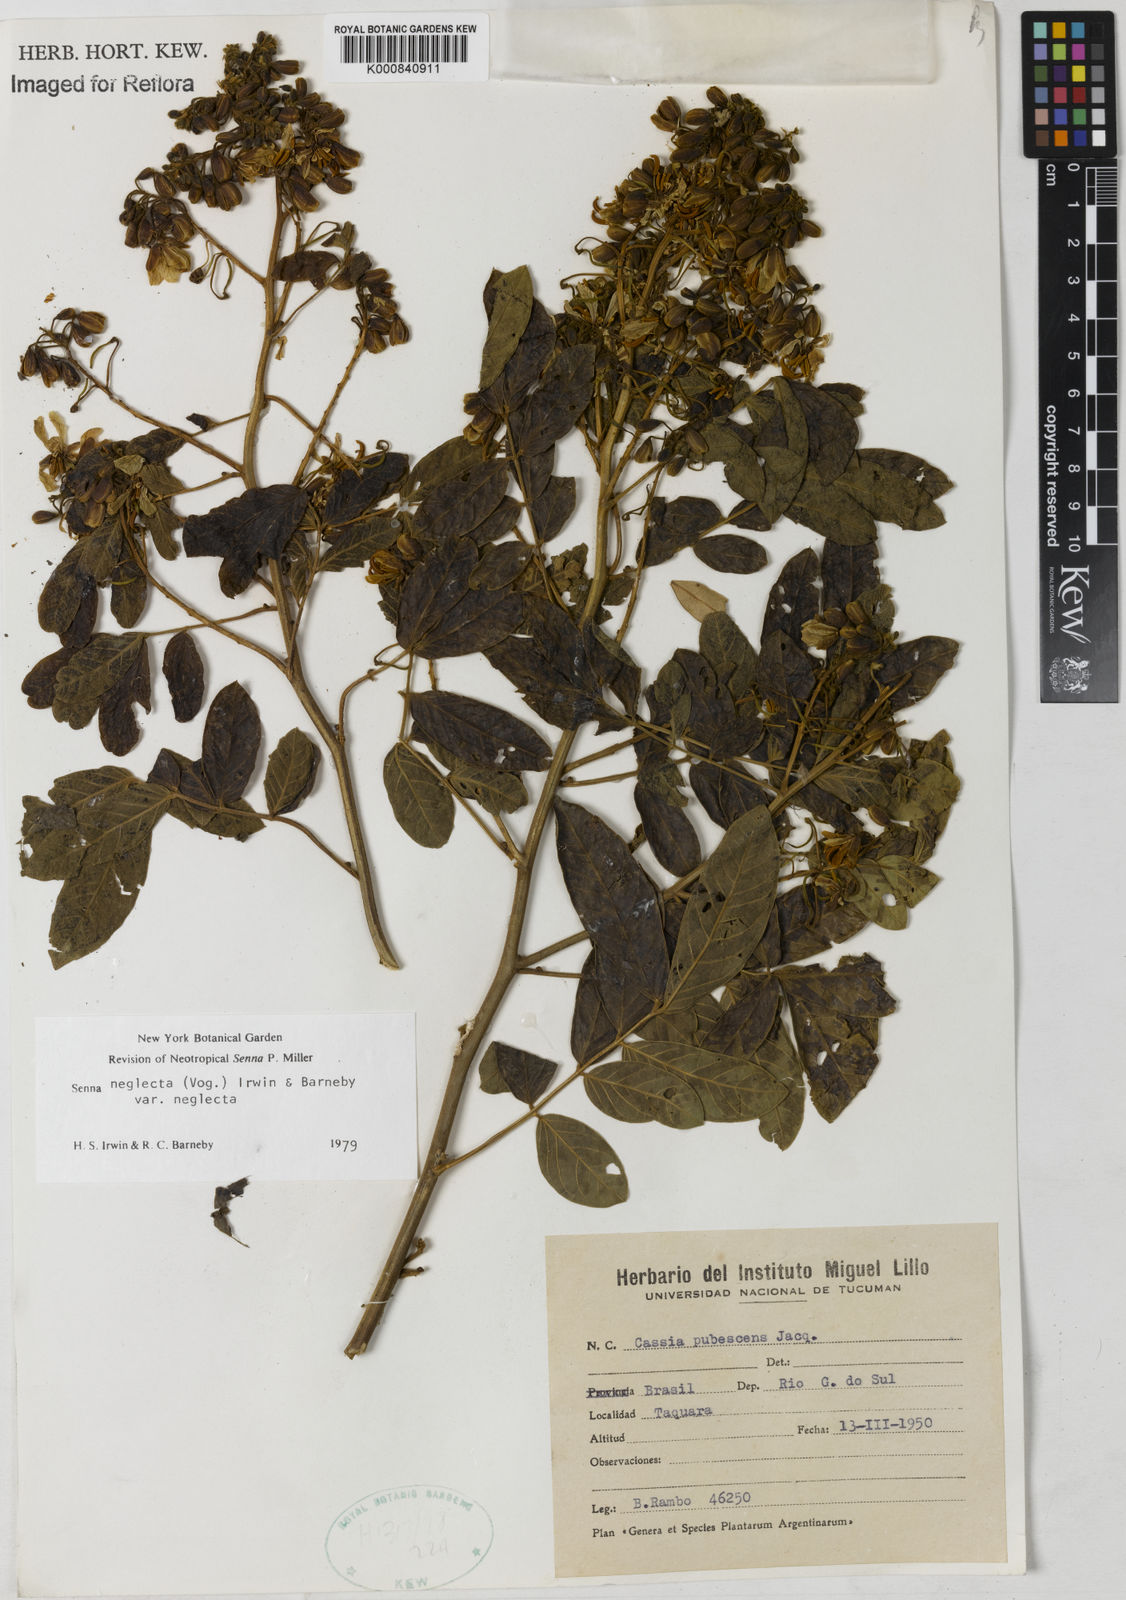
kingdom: Plantae
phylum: Tracheophyta
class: Magnoliopsida
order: Fabales
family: Fabaceae
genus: Senna
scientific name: Senna neglecta
